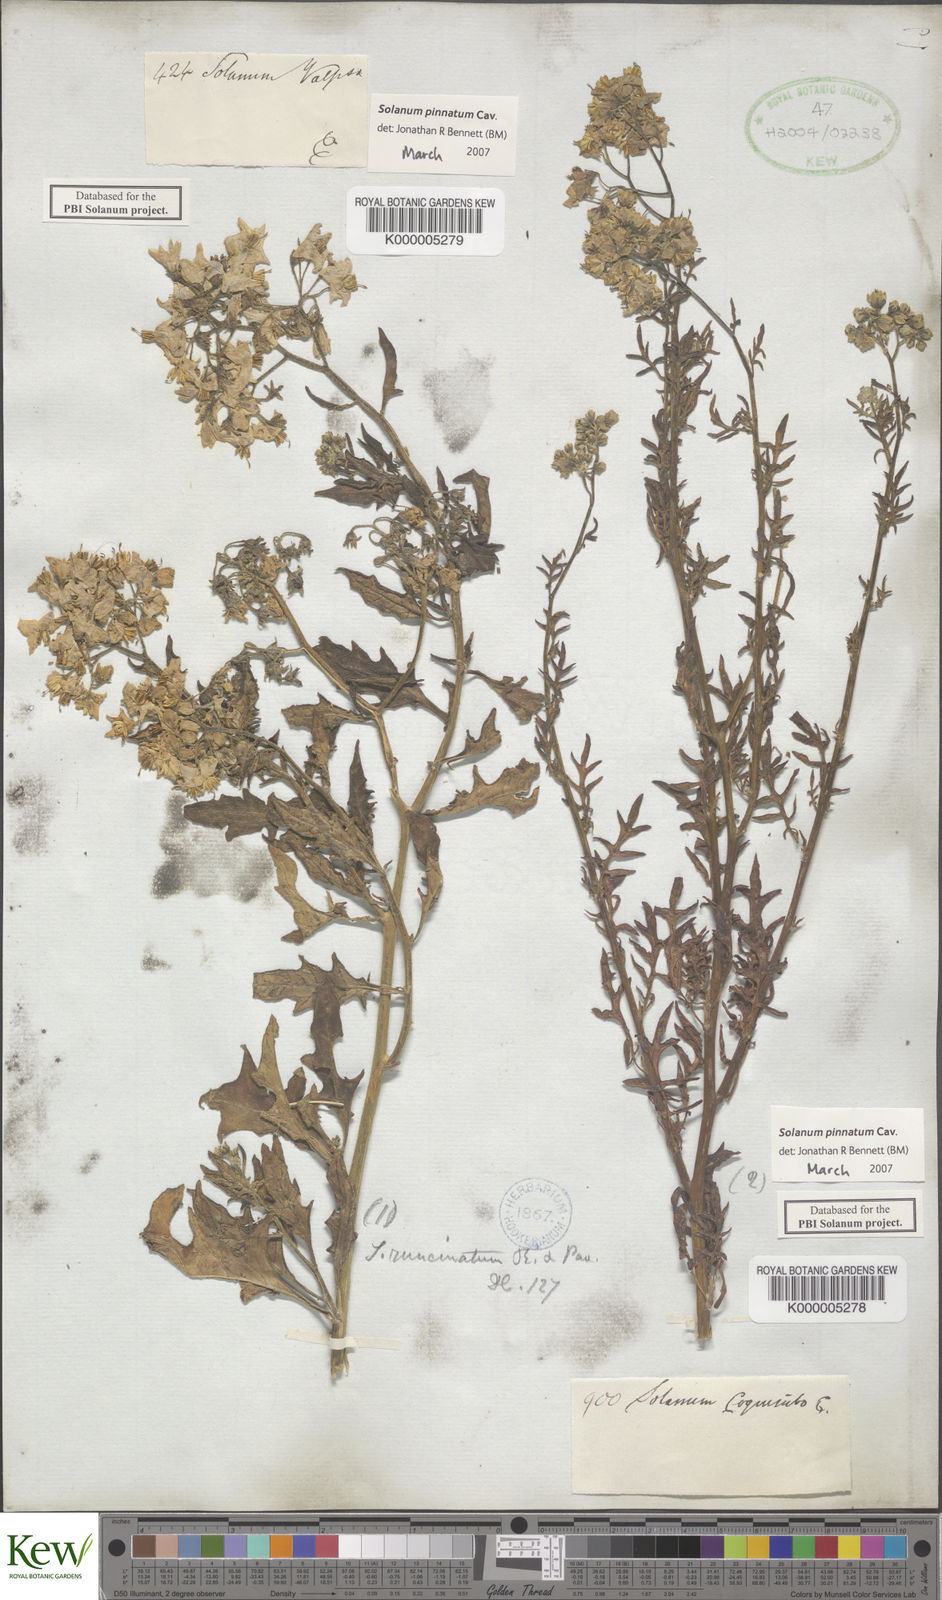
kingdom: Plantae
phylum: Tracheophyta
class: Magnoliopsida
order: Solanales
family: Solanaceae
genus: Solanum
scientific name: Solanum pinnatum
